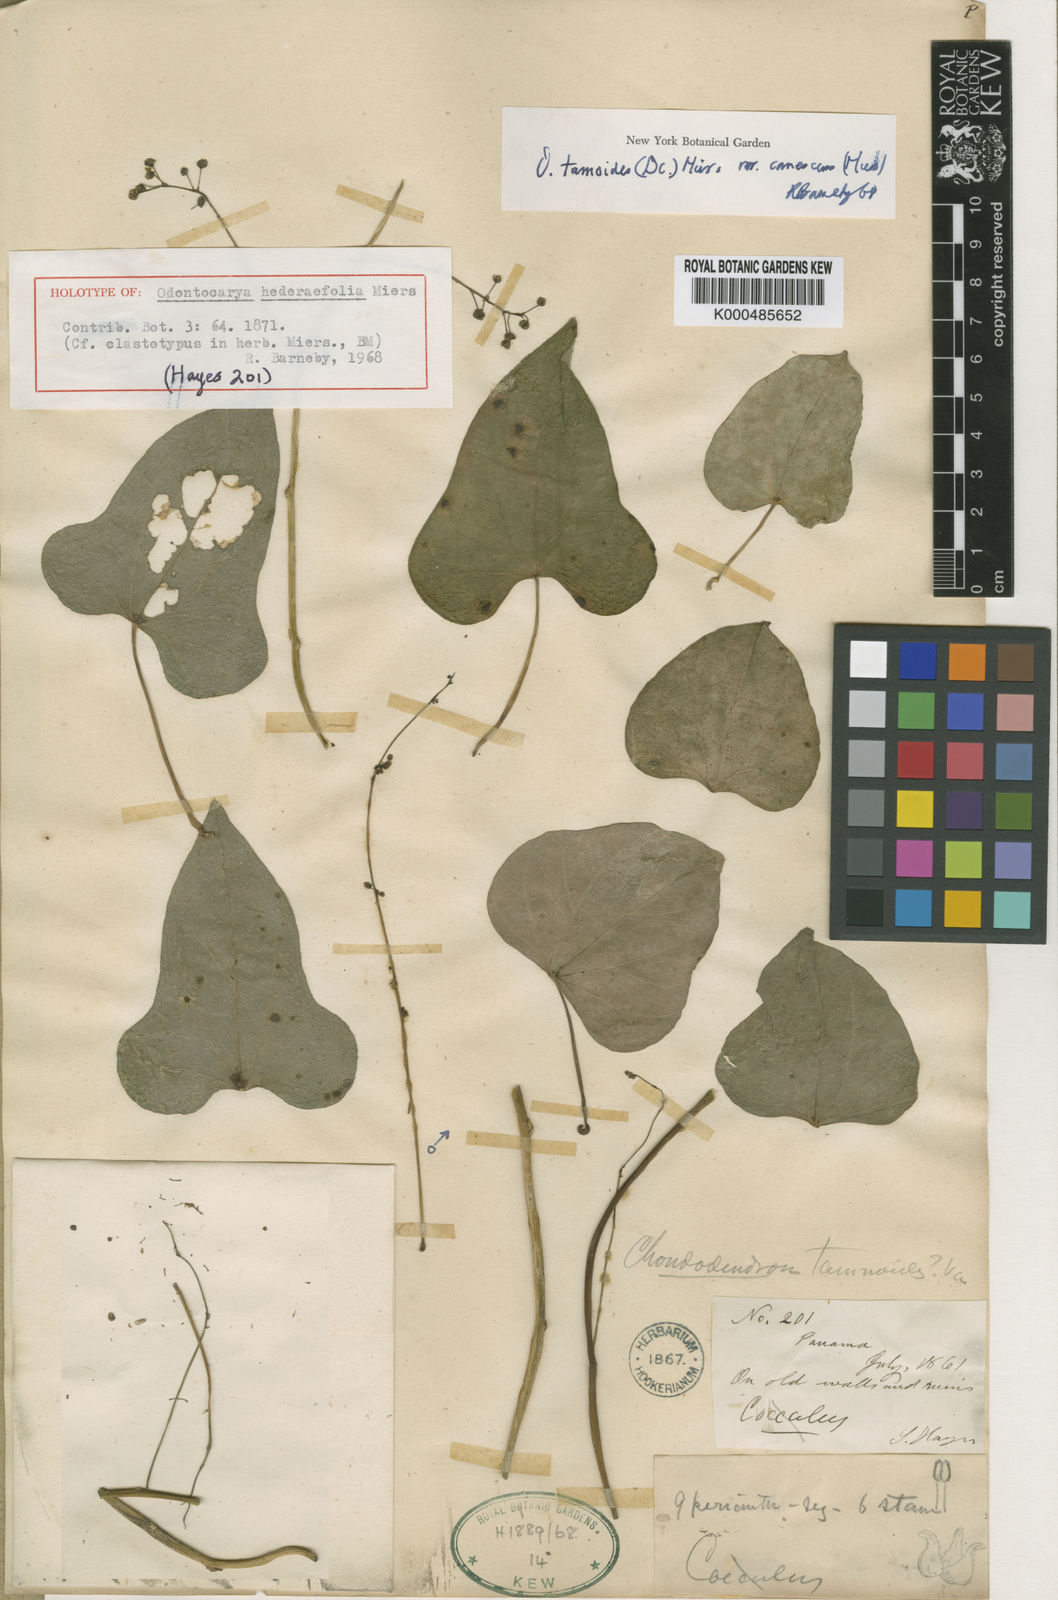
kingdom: Plantae
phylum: Tracheophyta
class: Magnoliopsida
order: Ranunculales
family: Menispermaceae
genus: Odontocarya
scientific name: Odontocarya tamoides
